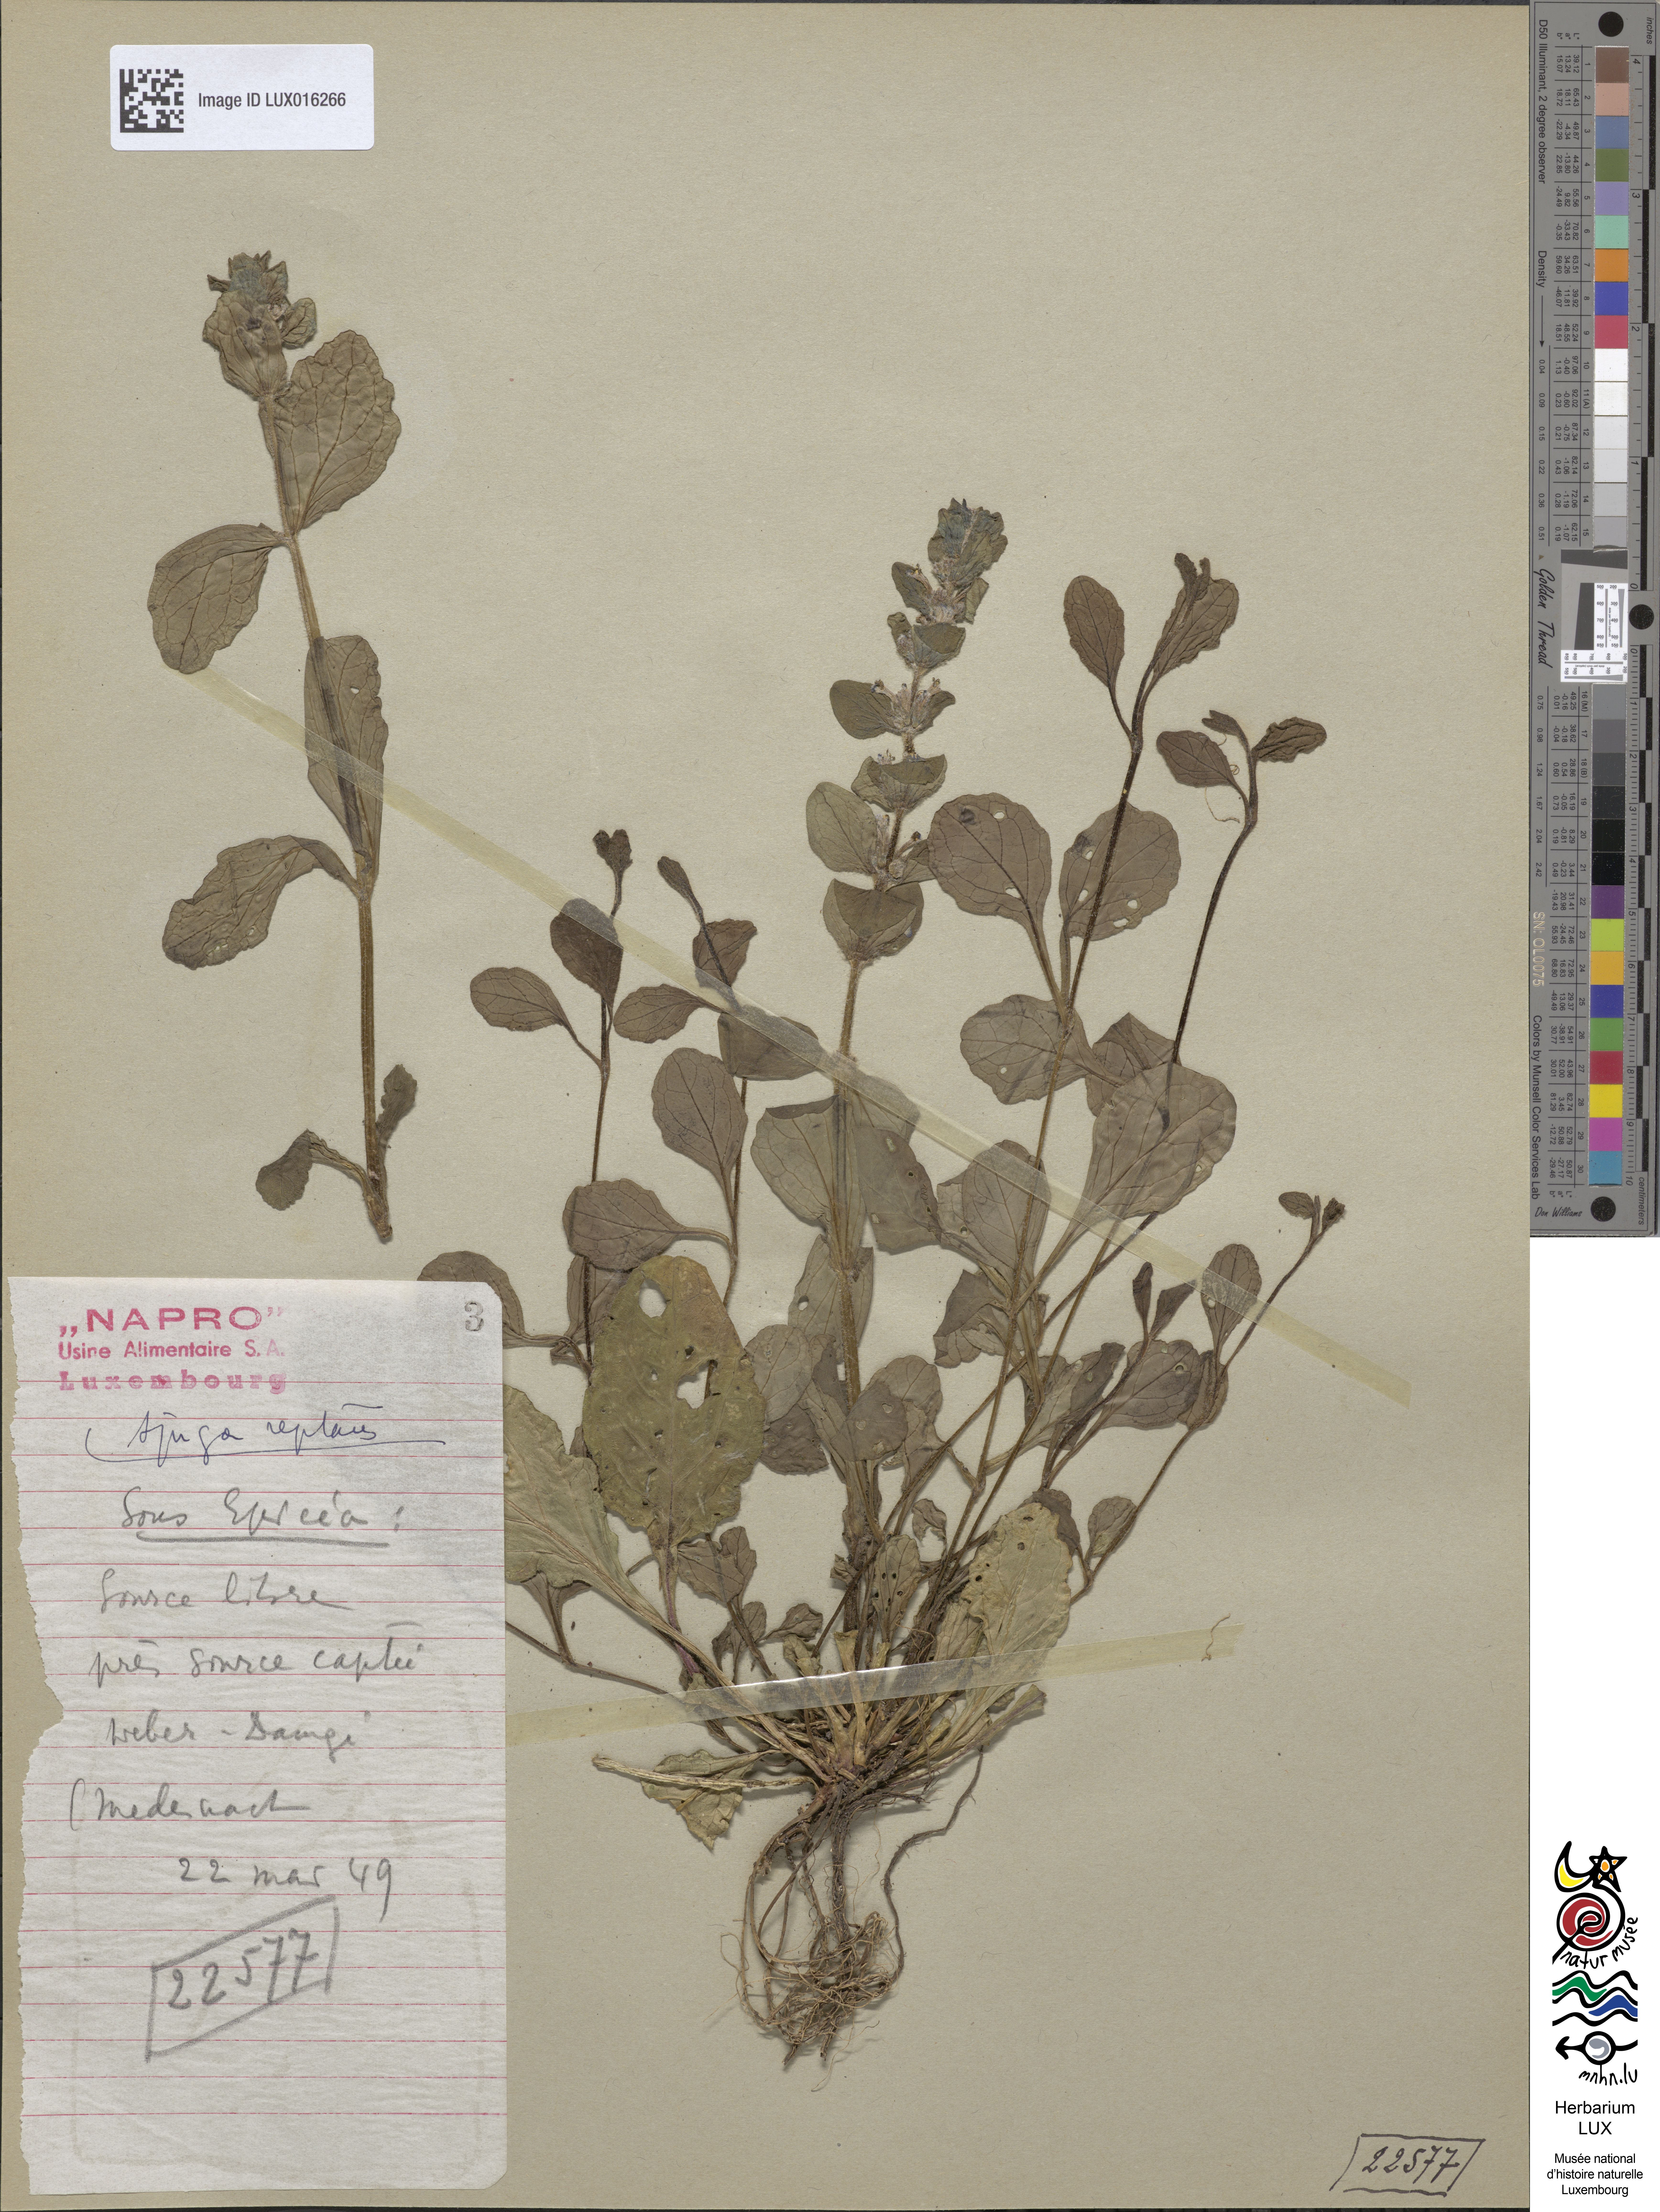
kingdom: Plantae
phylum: Tracheophyta
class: Magnoliopsida
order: Lamiales
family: Lamiaceae
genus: Ajuga
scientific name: Ajuga reptans
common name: Bugle
